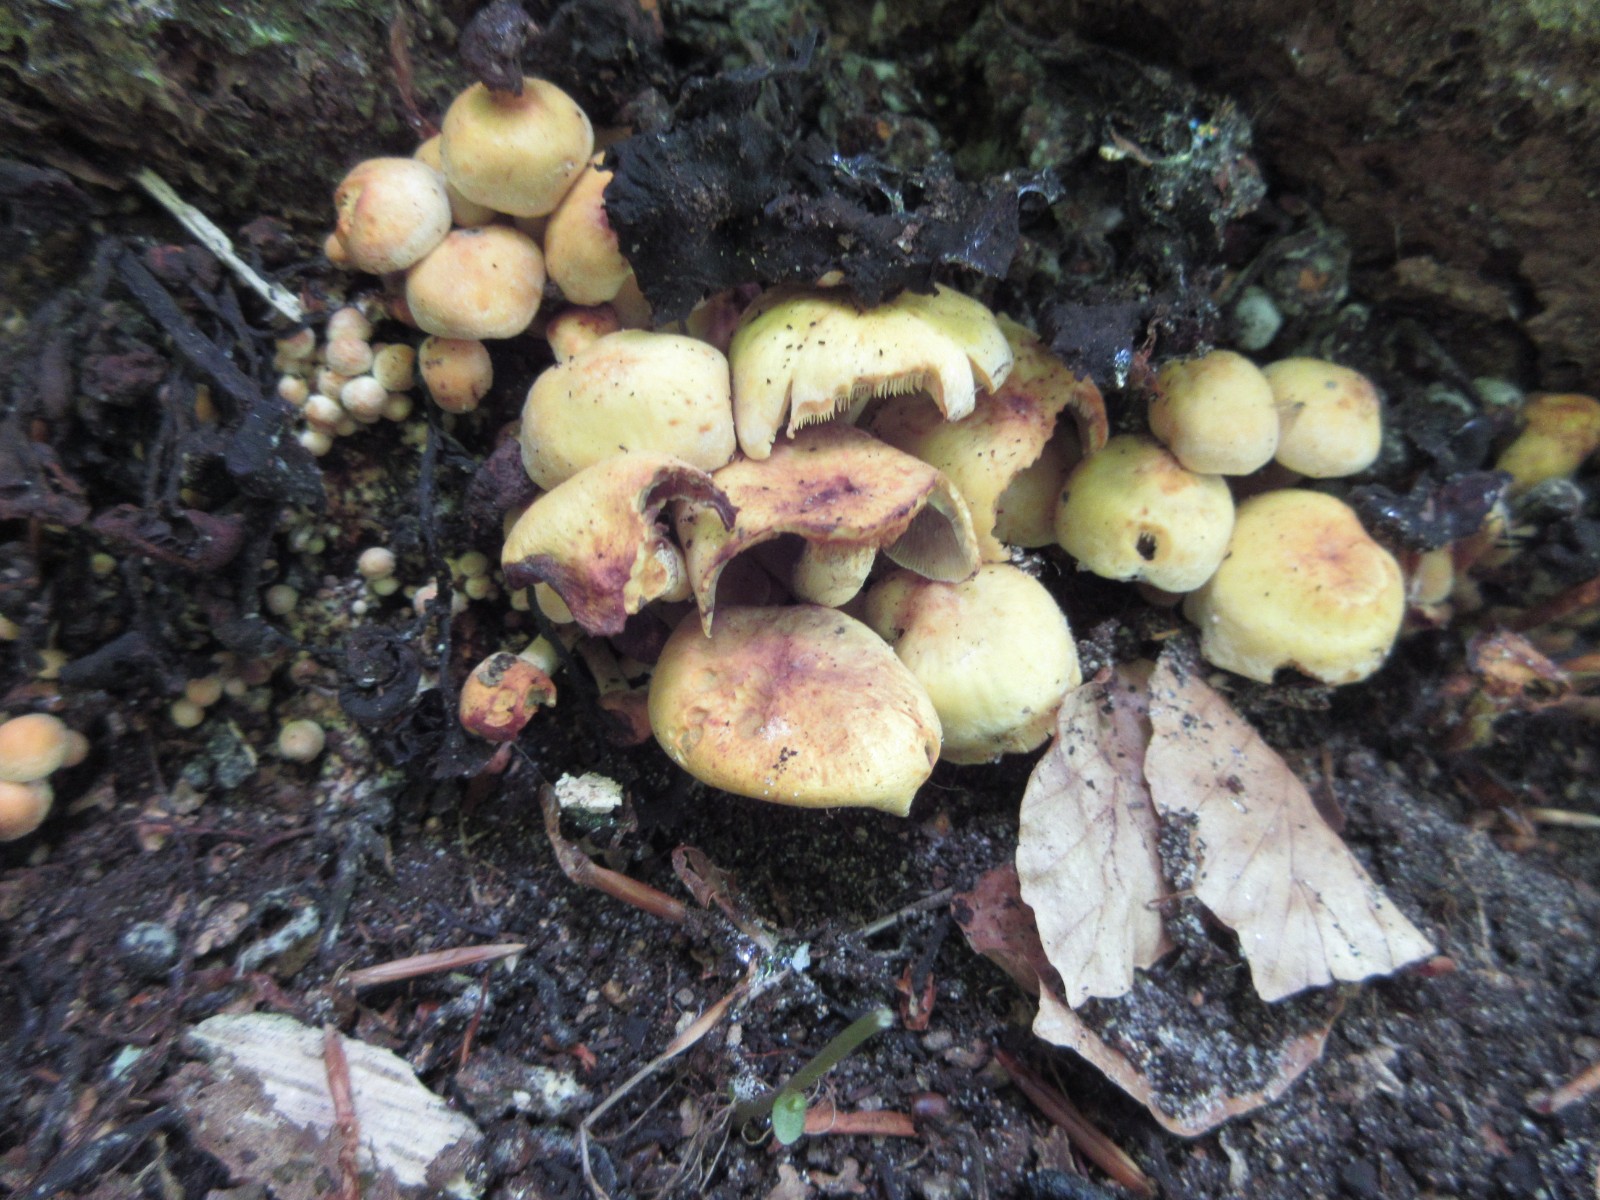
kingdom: Fungi
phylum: Basidiomycota
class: Agaricomycetes
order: Agaricales
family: Strophariaceae
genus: Hypholoma
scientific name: Hypholoma fasciculare
